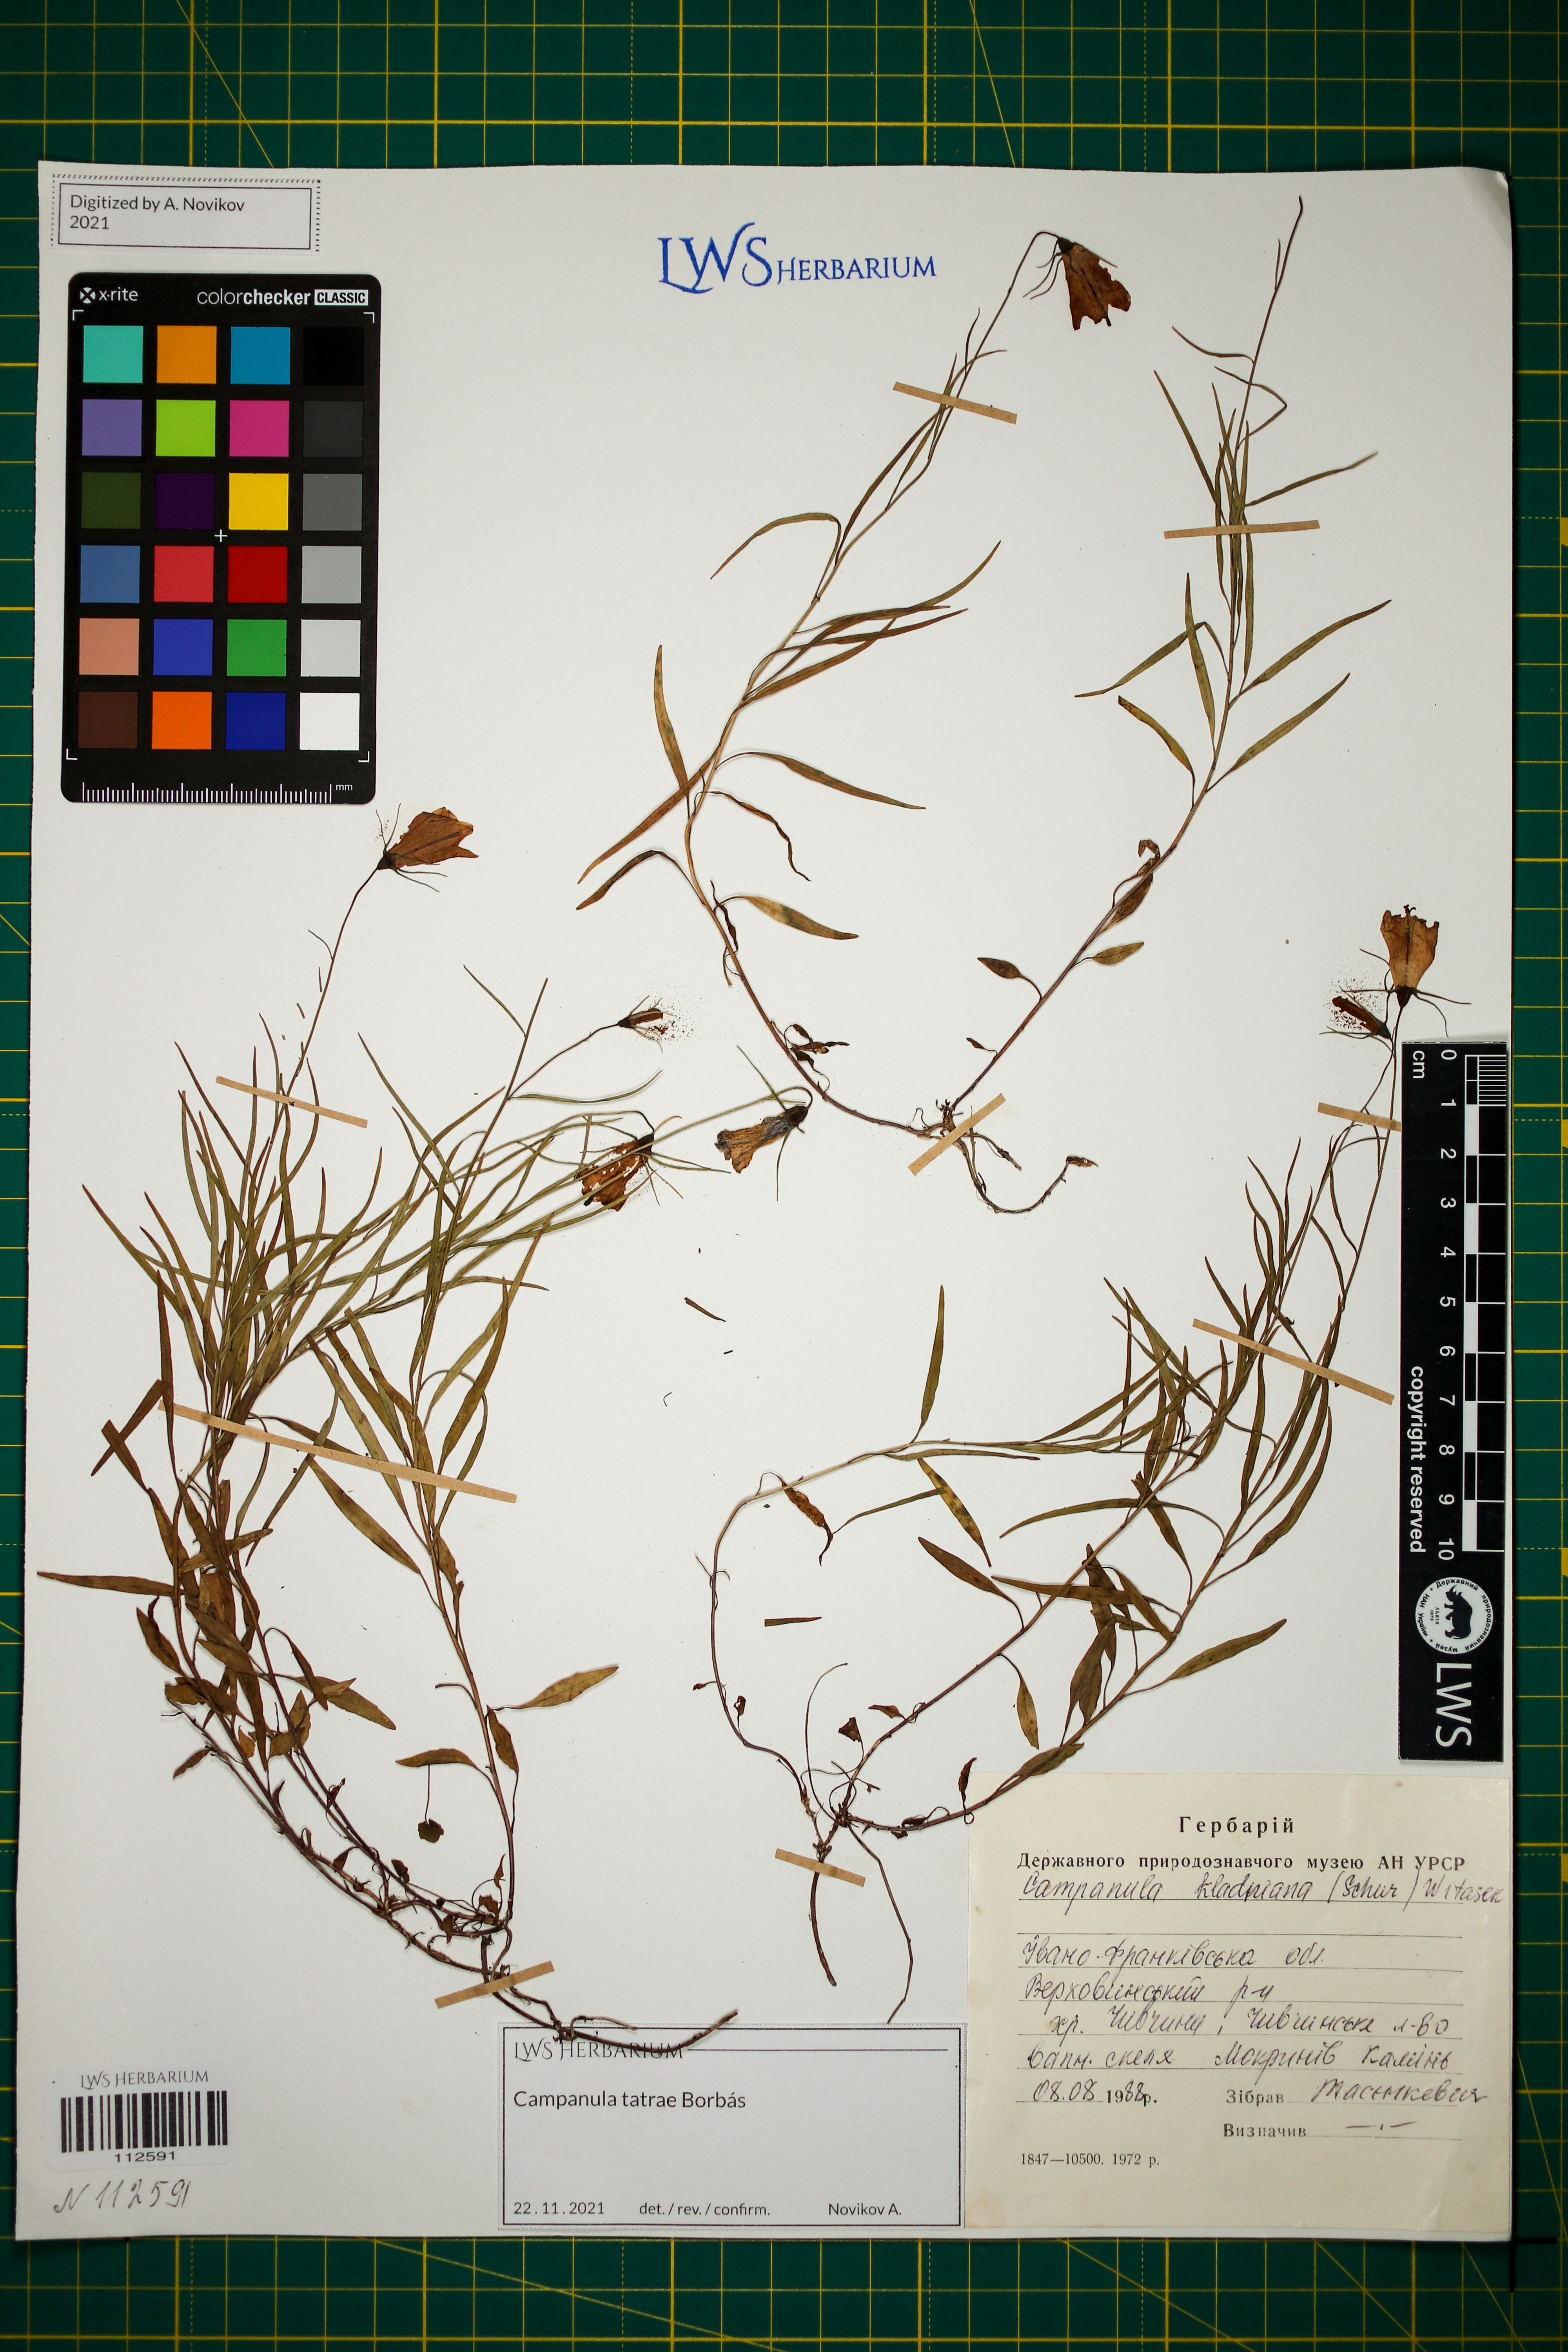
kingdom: Plantae
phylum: Tracheophyta
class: Magnoliopsida
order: Asterales
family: Campanulaceae
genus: Campanula
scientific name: Campanula kladniana
